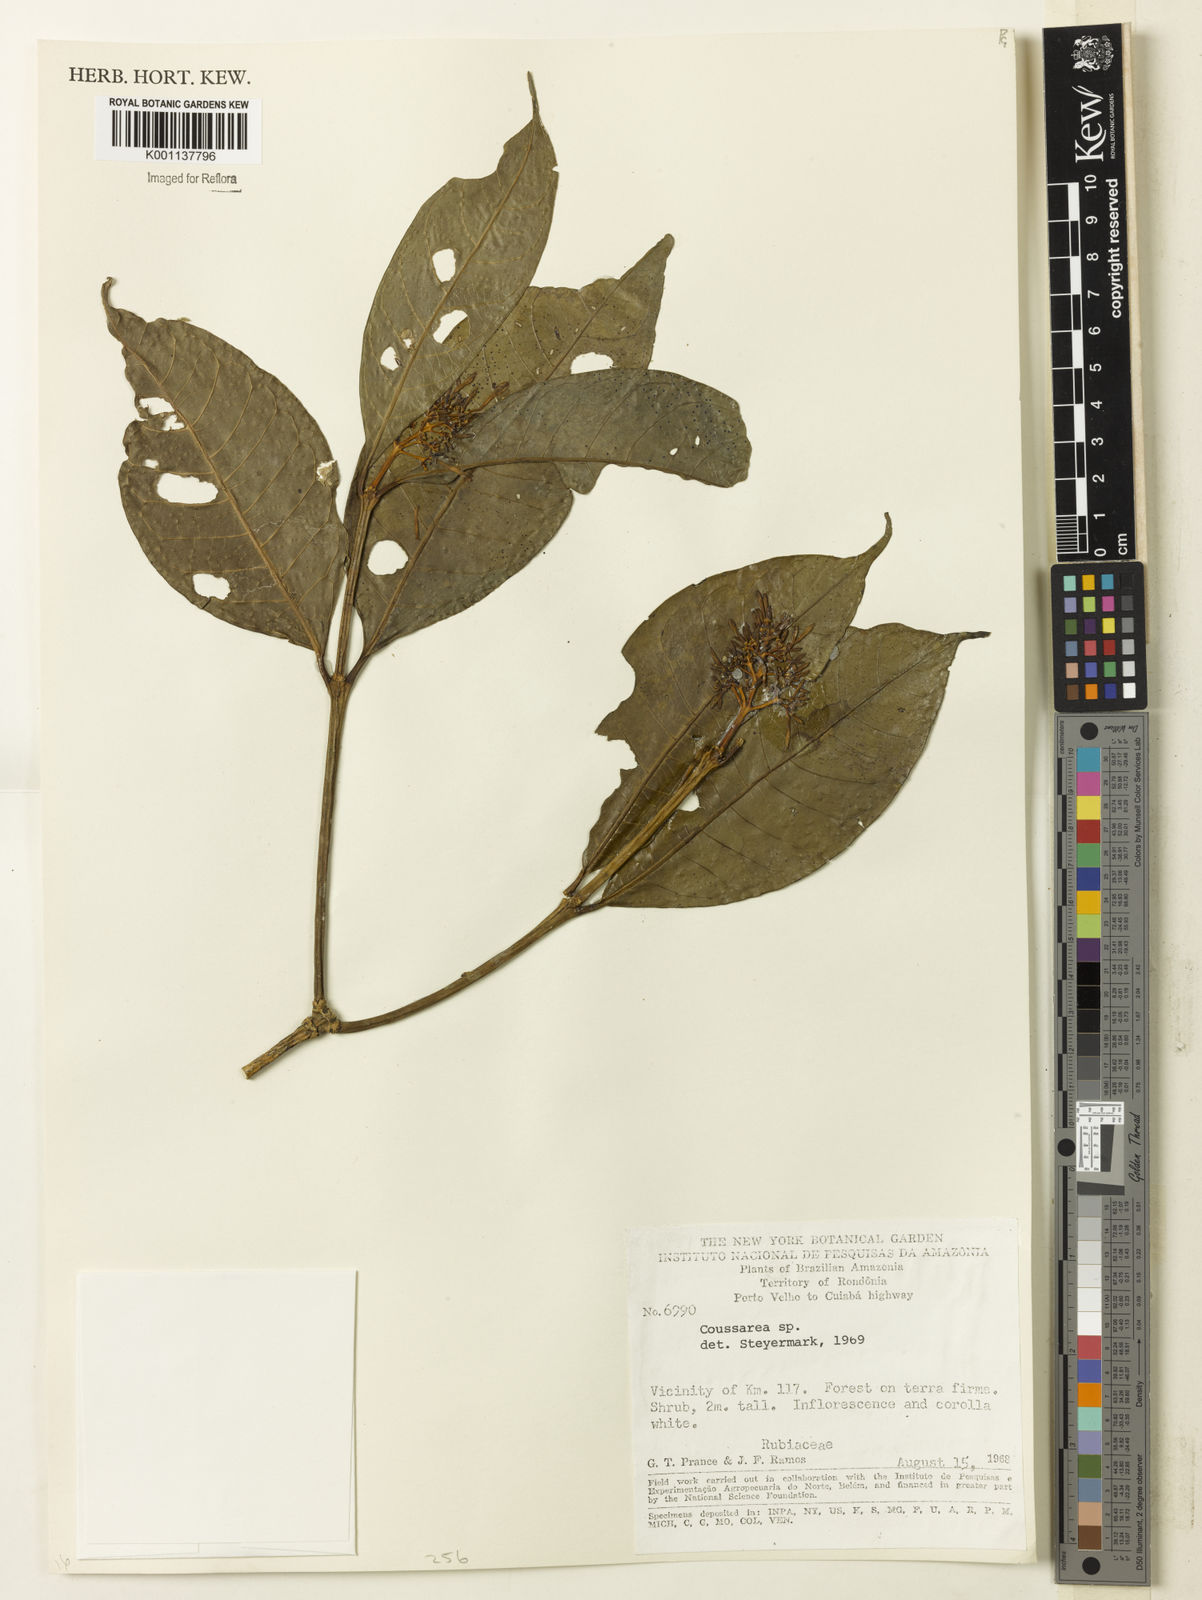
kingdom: Plantae
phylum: Tracheophyta
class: Magnoliopsida
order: Gentianales
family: Rubiaceae
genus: Coussarea
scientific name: Coussarea
